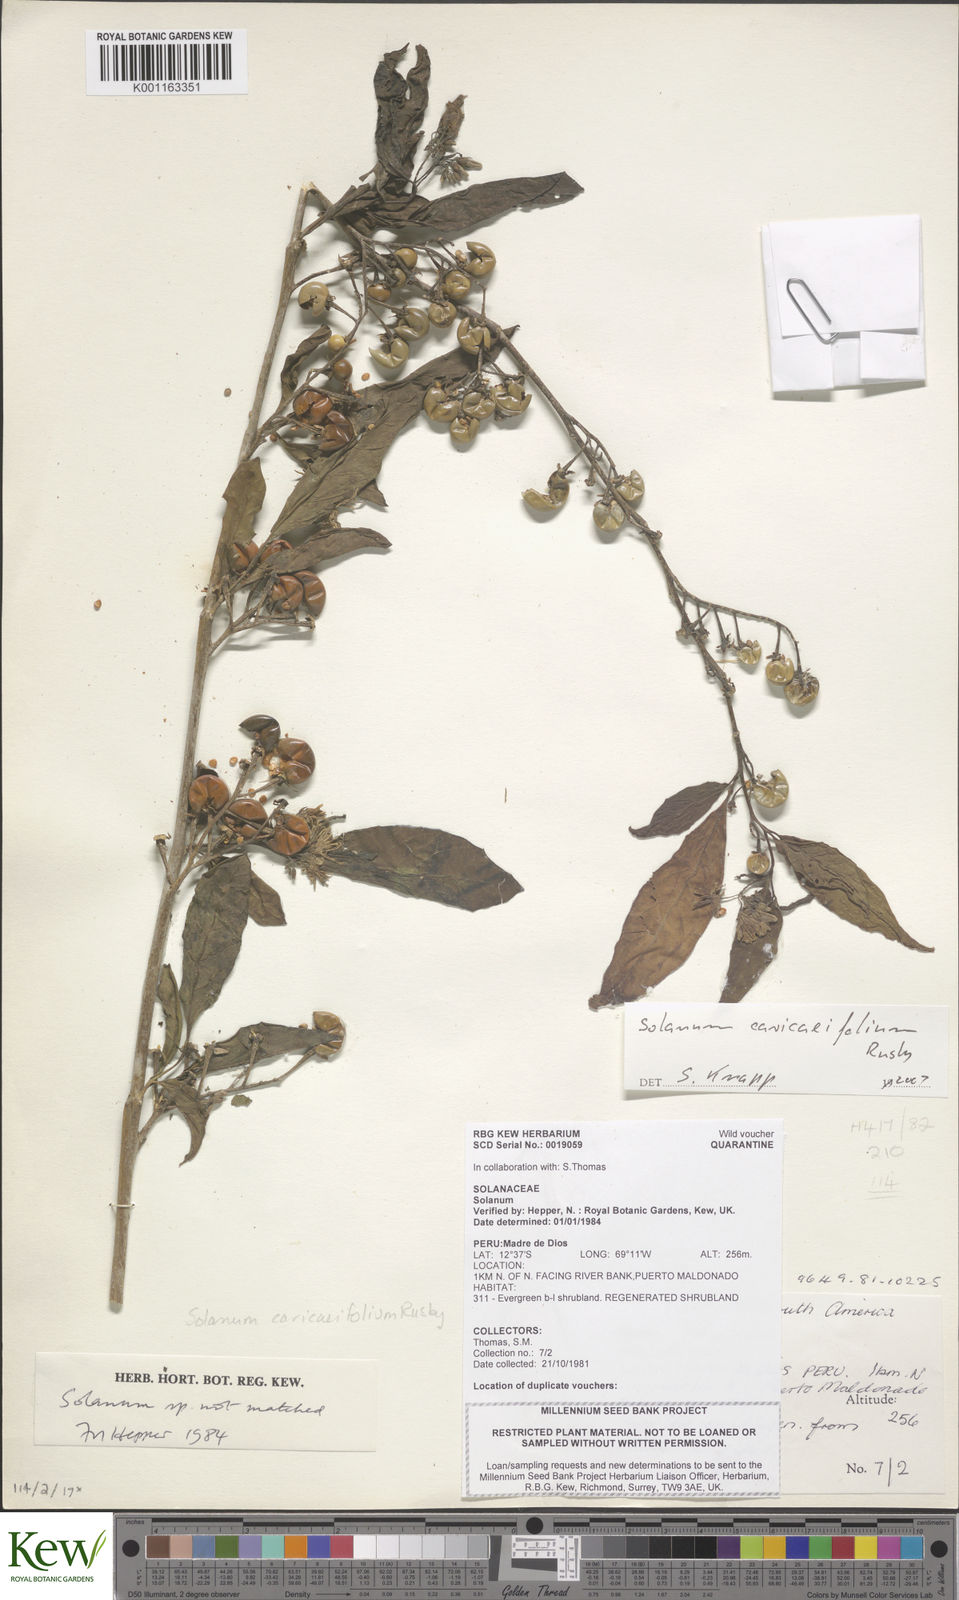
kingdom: Plantae
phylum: Tracheophyta
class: Magnoliopsida
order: Solanales
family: Solanaceae
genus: Solanum
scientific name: Solanum caricaefolium
